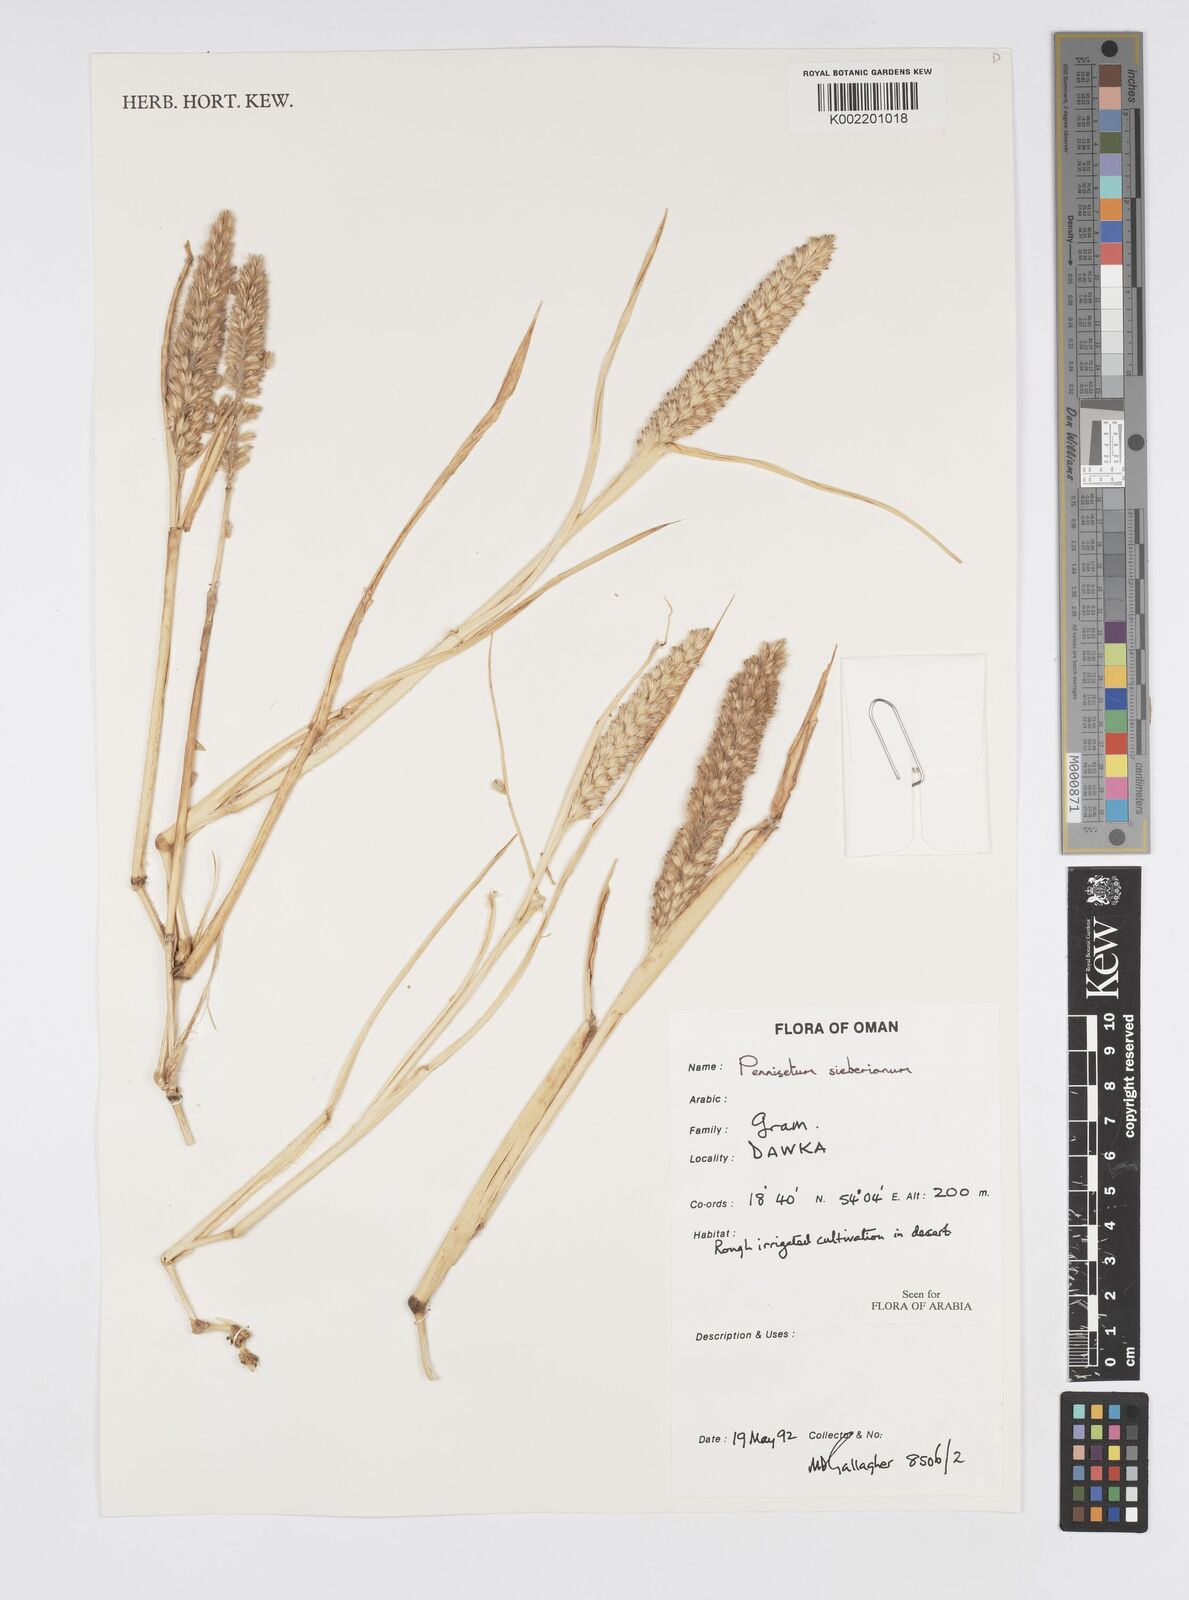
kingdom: Plantae
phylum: Tracheophyta
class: Liliopsida
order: Poales
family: Poaceae
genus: Cenchrus
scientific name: Cenchrus sieberianus
